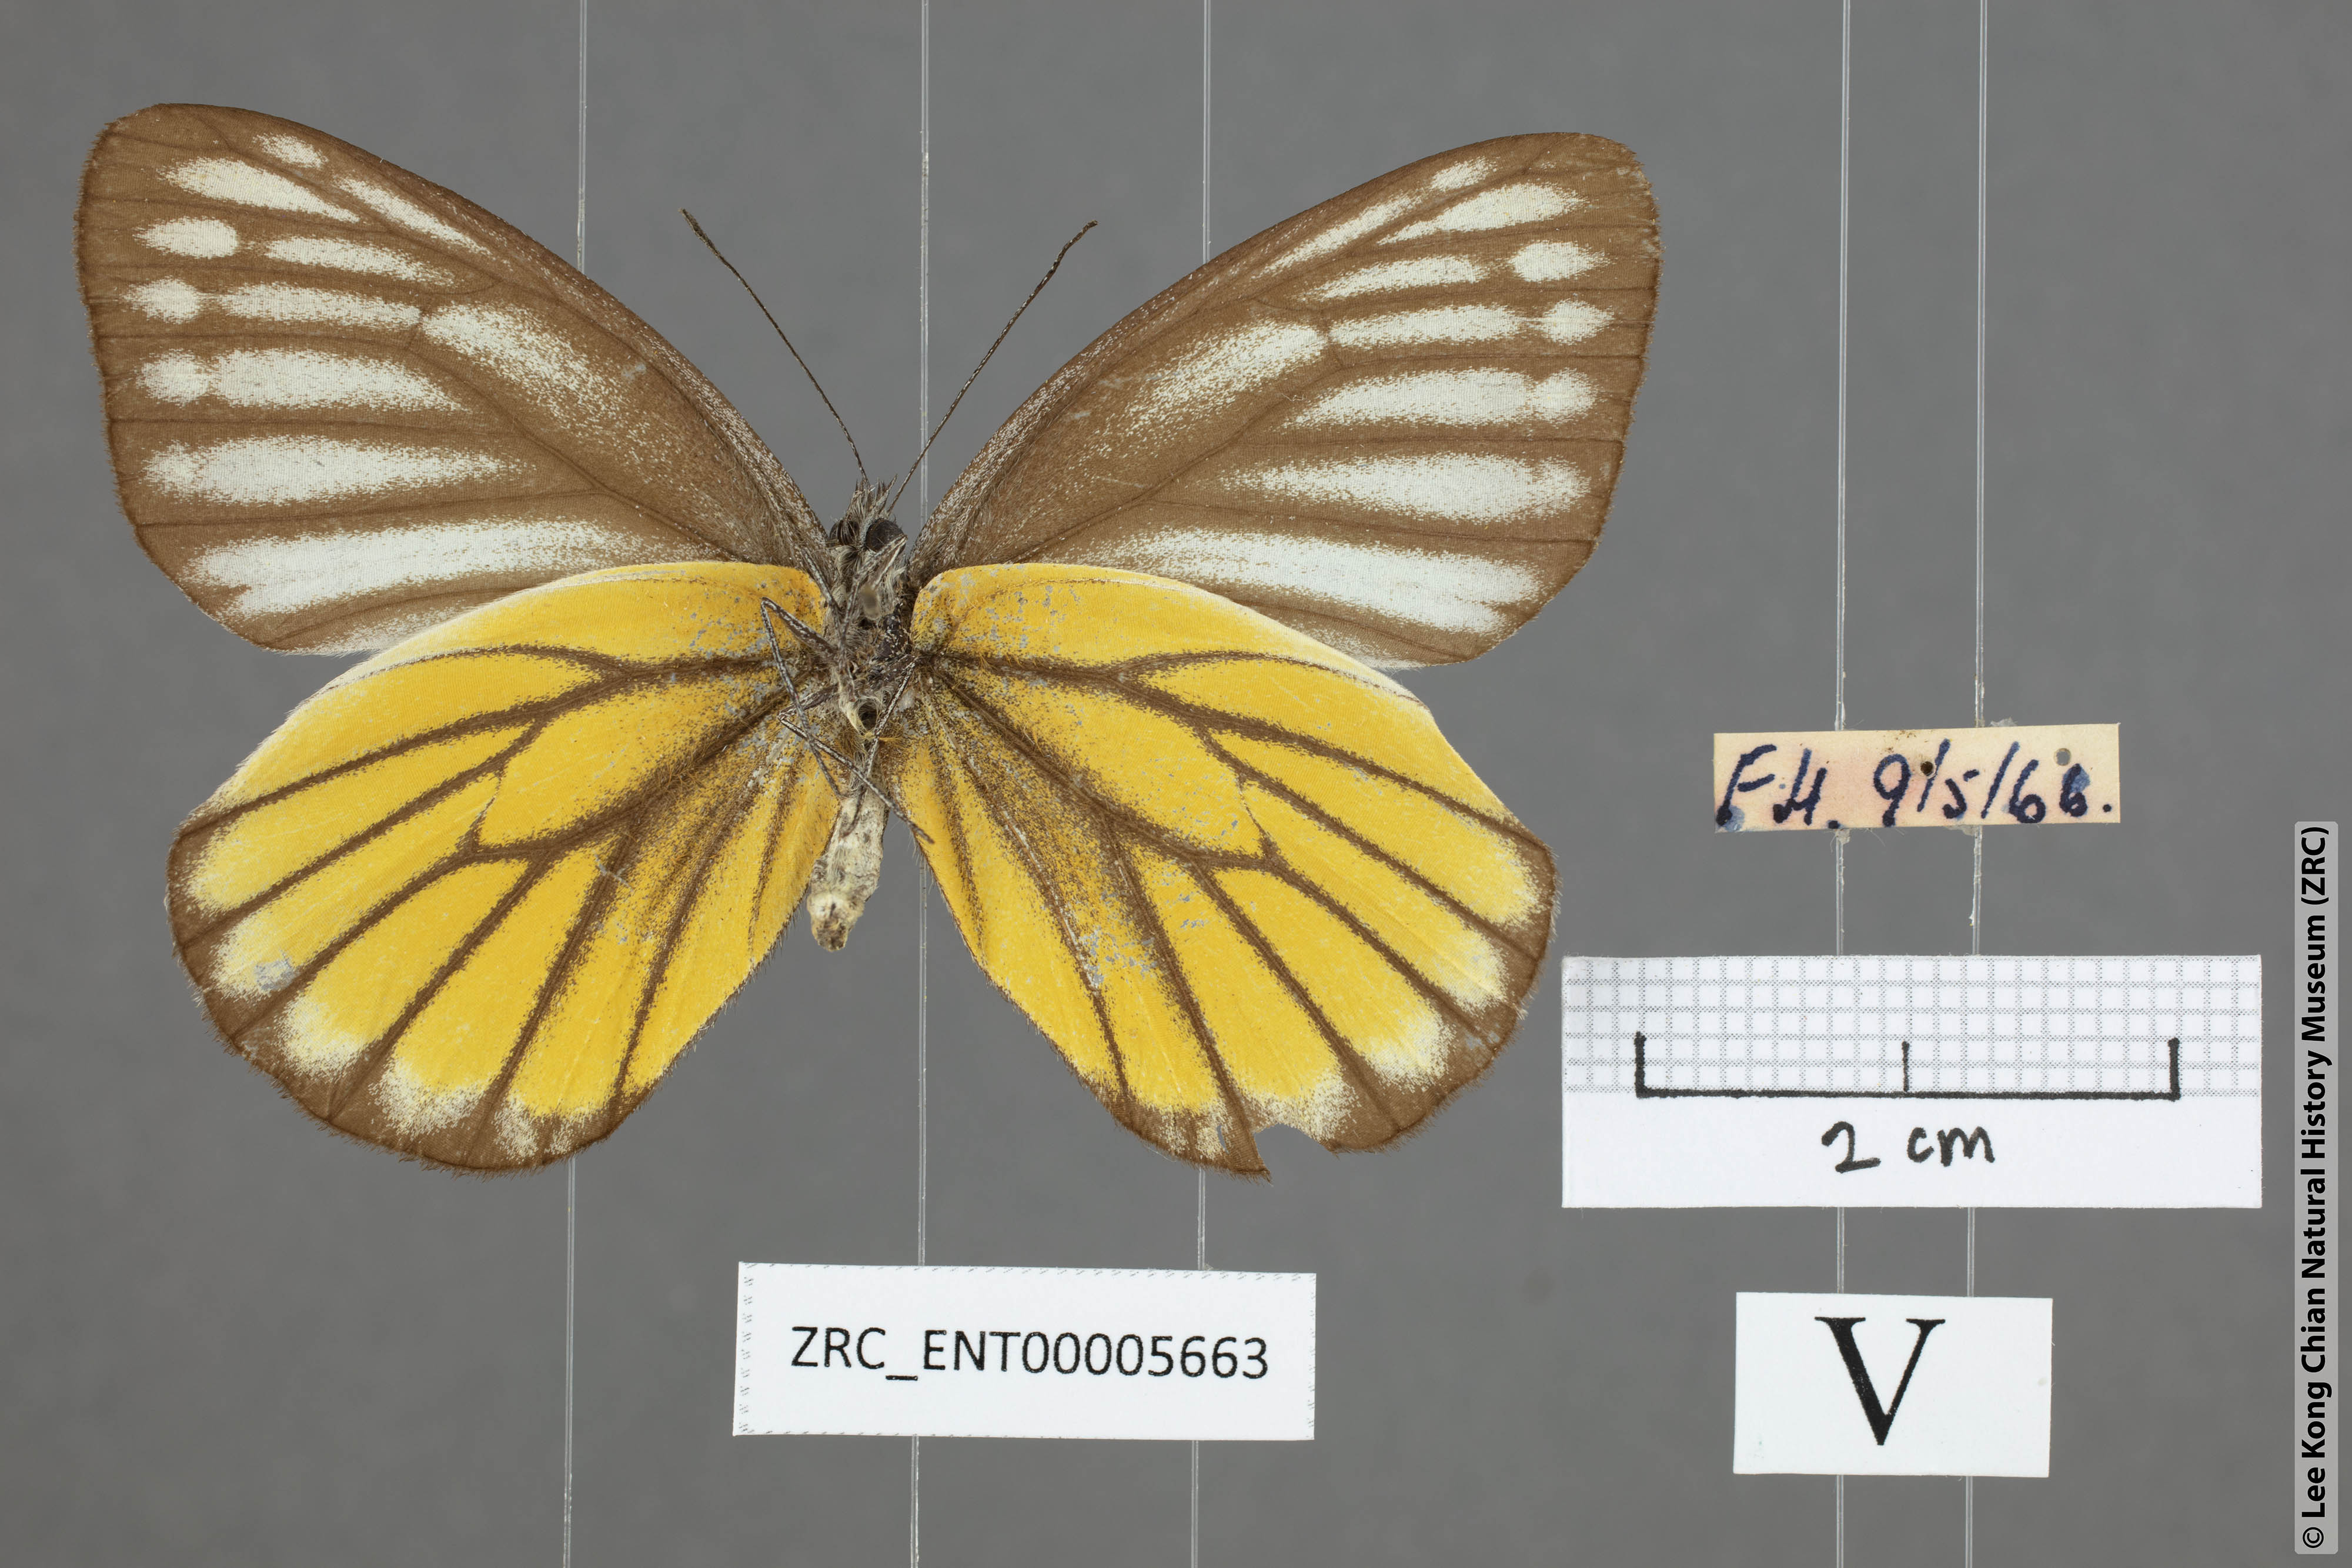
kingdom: Animalia
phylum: Arthropoda
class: Insecta
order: Lepidoptera
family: Pieridae
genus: Delias
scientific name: Delias baracasa
